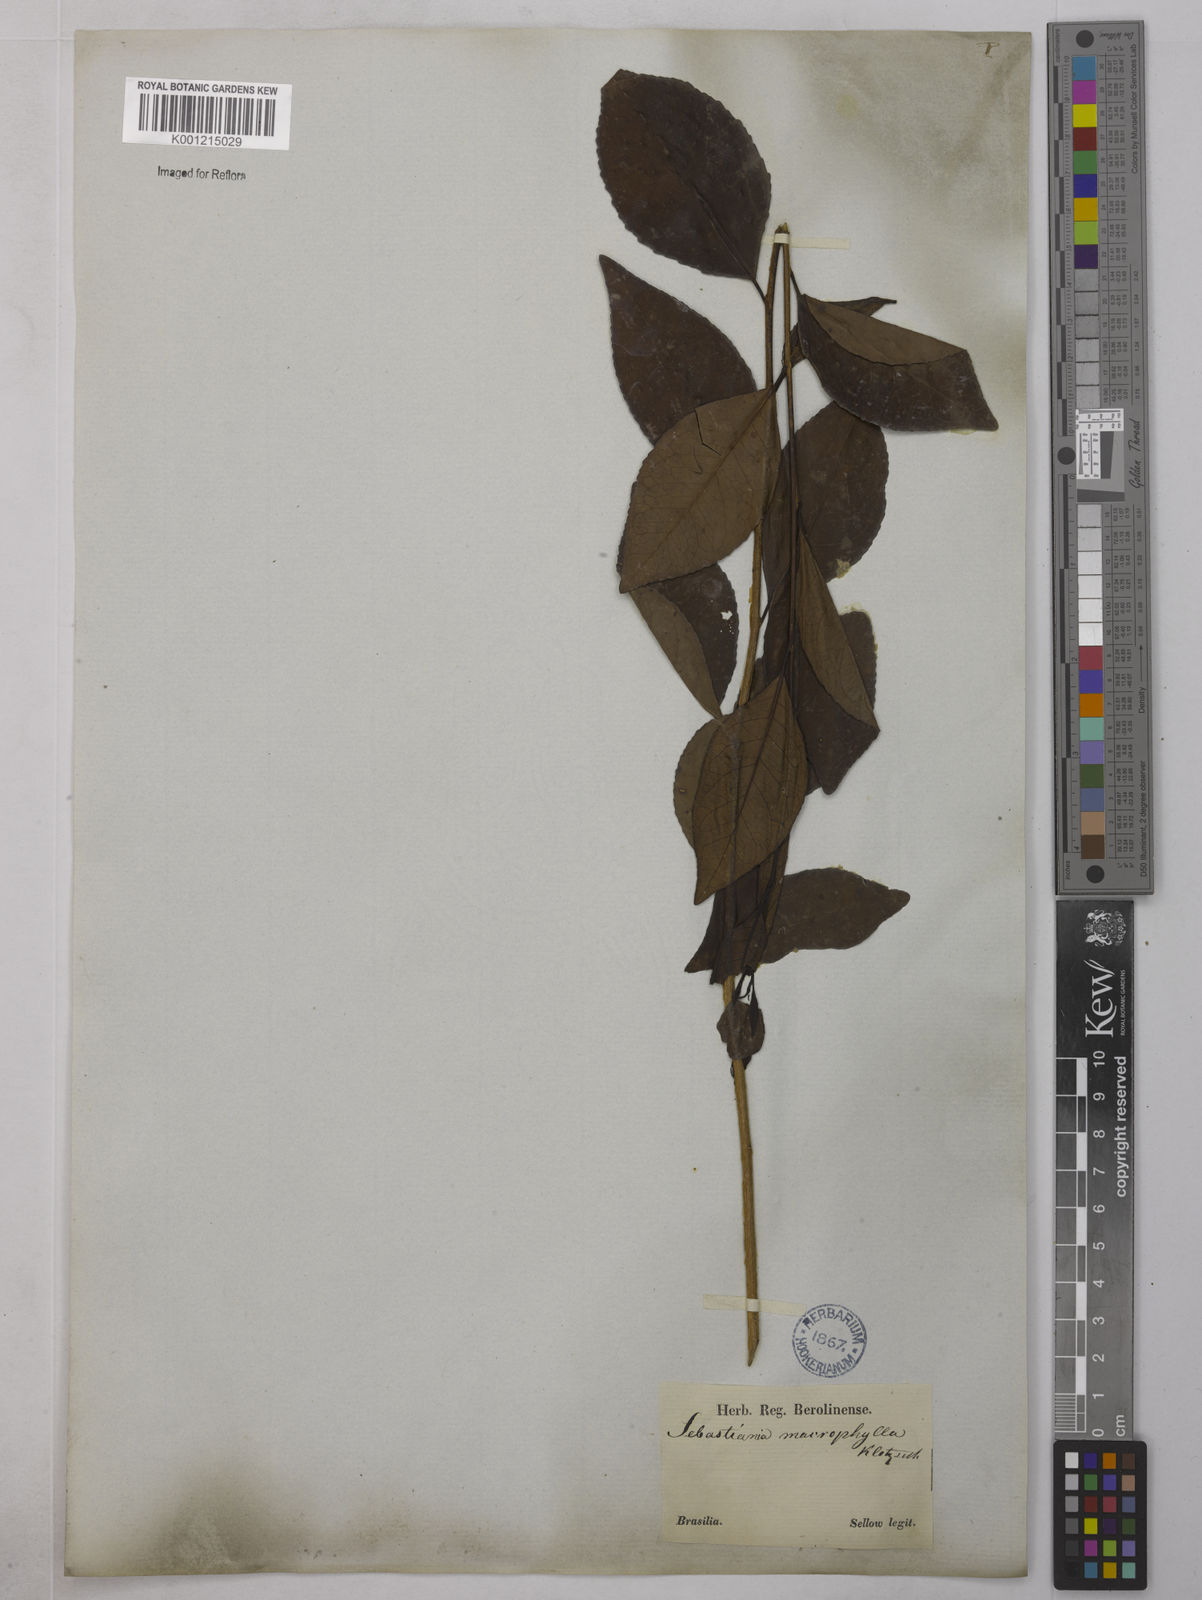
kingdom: Plantae
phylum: Tracheophyta
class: Magnoliopsida
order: Malpighiales
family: Euphorbiaceae
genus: Sebastiania
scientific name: Sebastiania brasiliensis
